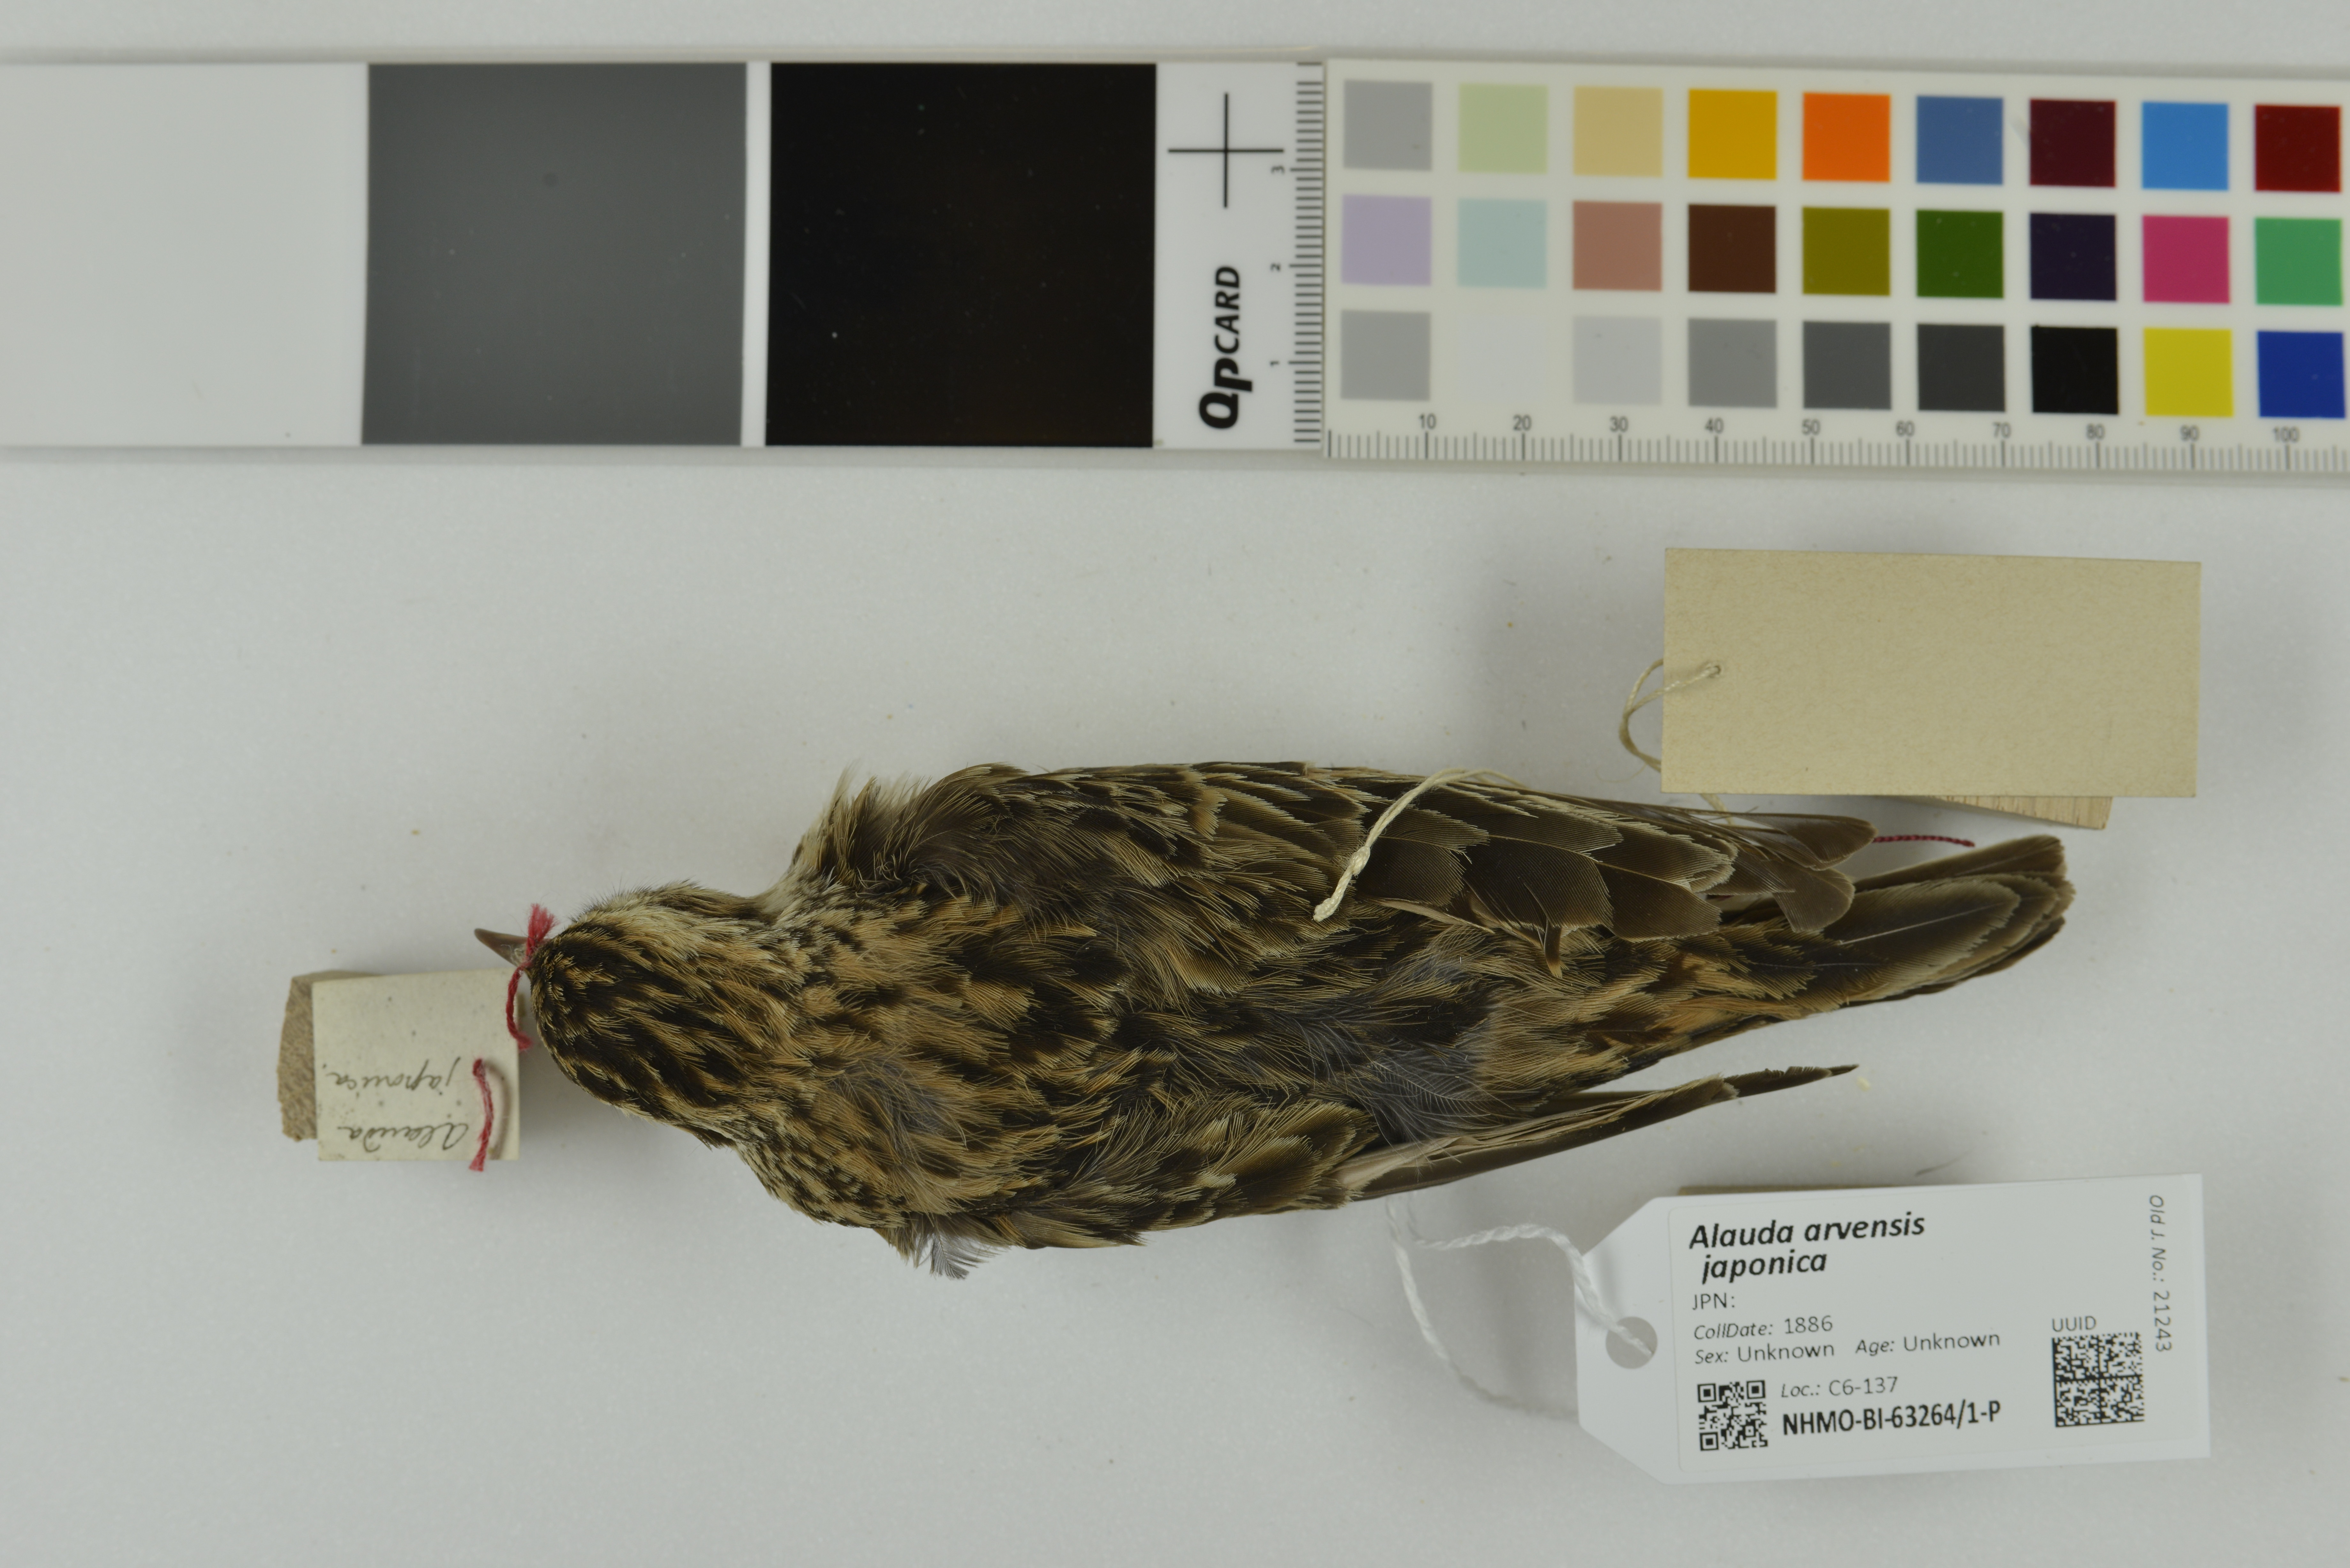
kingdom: Animalia
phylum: Chordata
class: Aves
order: Passeriformes
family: Alaudidae
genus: Alauda
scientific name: Alauda arvensis
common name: Eurasian skylark
